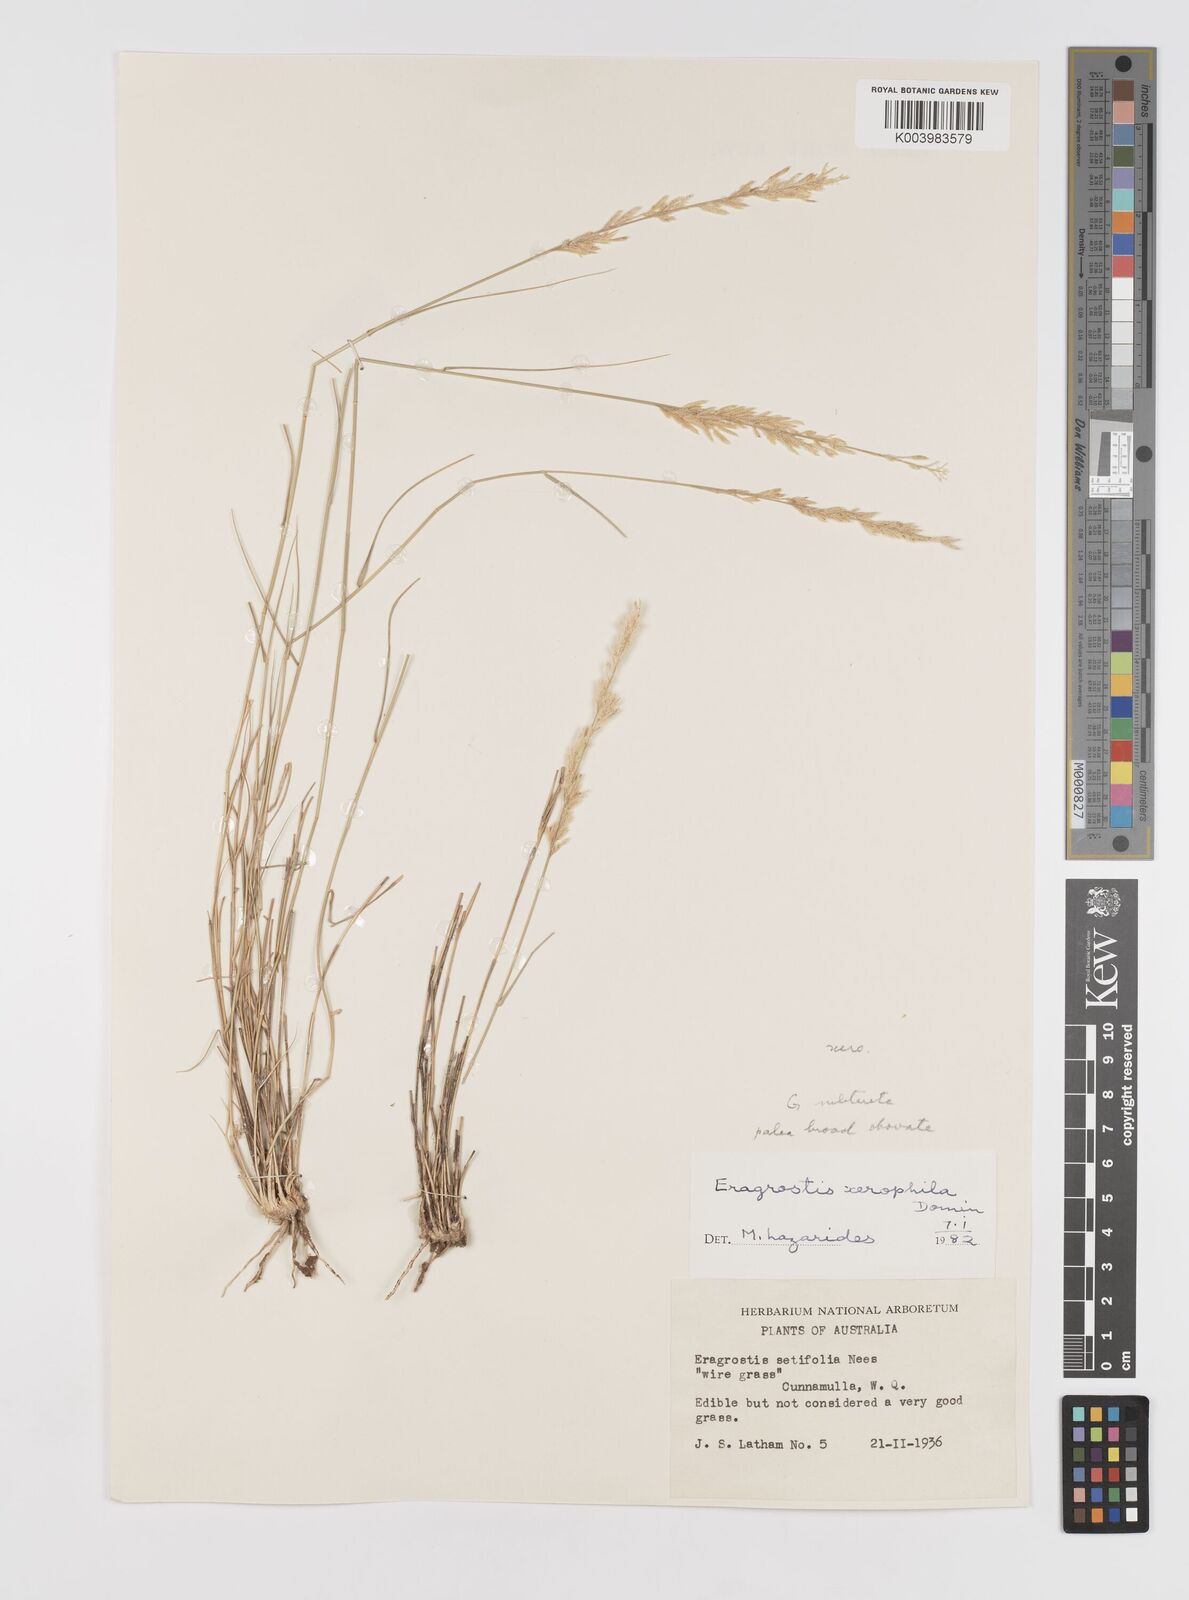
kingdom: Plantae
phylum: Tracheophyta
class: Liliopsida
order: Poales
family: Poaceae
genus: Eragrostis
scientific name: Eragrostis xerophila
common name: Wire wandarrie grass
